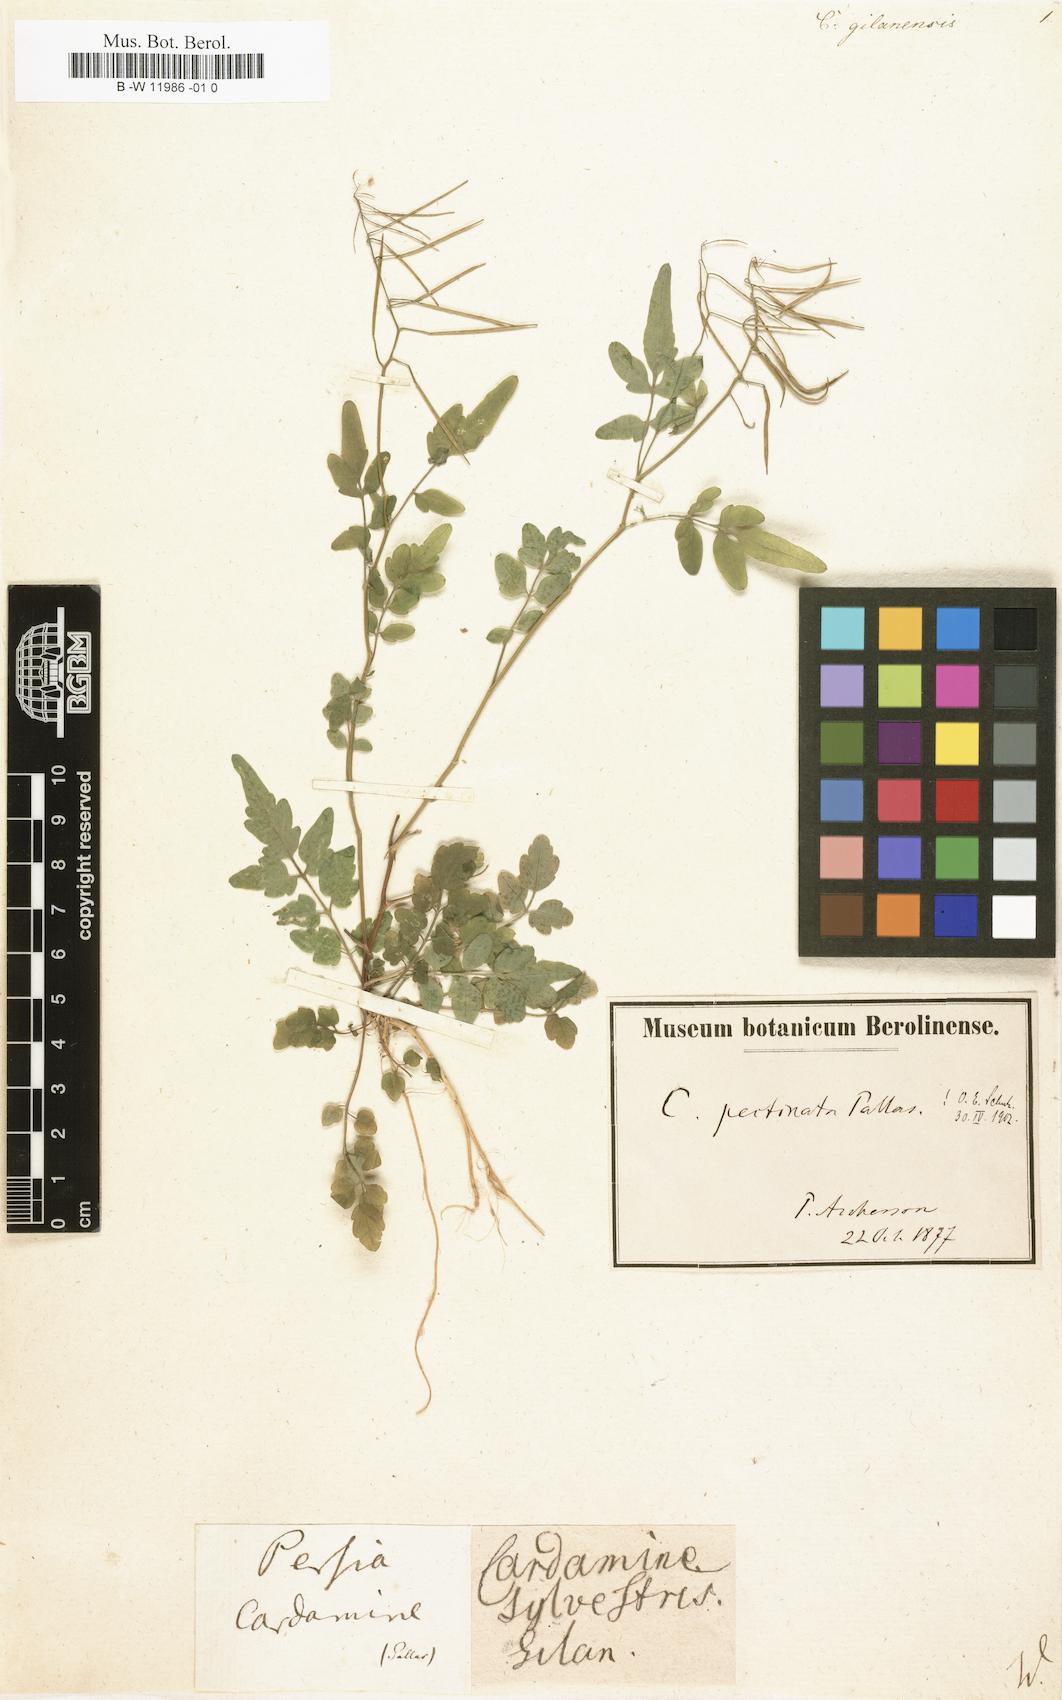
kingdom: Plantae
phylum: Tracheophyta
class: Magnoliopsida
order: Brassicales
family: Brassicaceae
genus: Cardamine
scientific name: Cardamine impatiens
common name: Narrow-leaved bitter-cress
